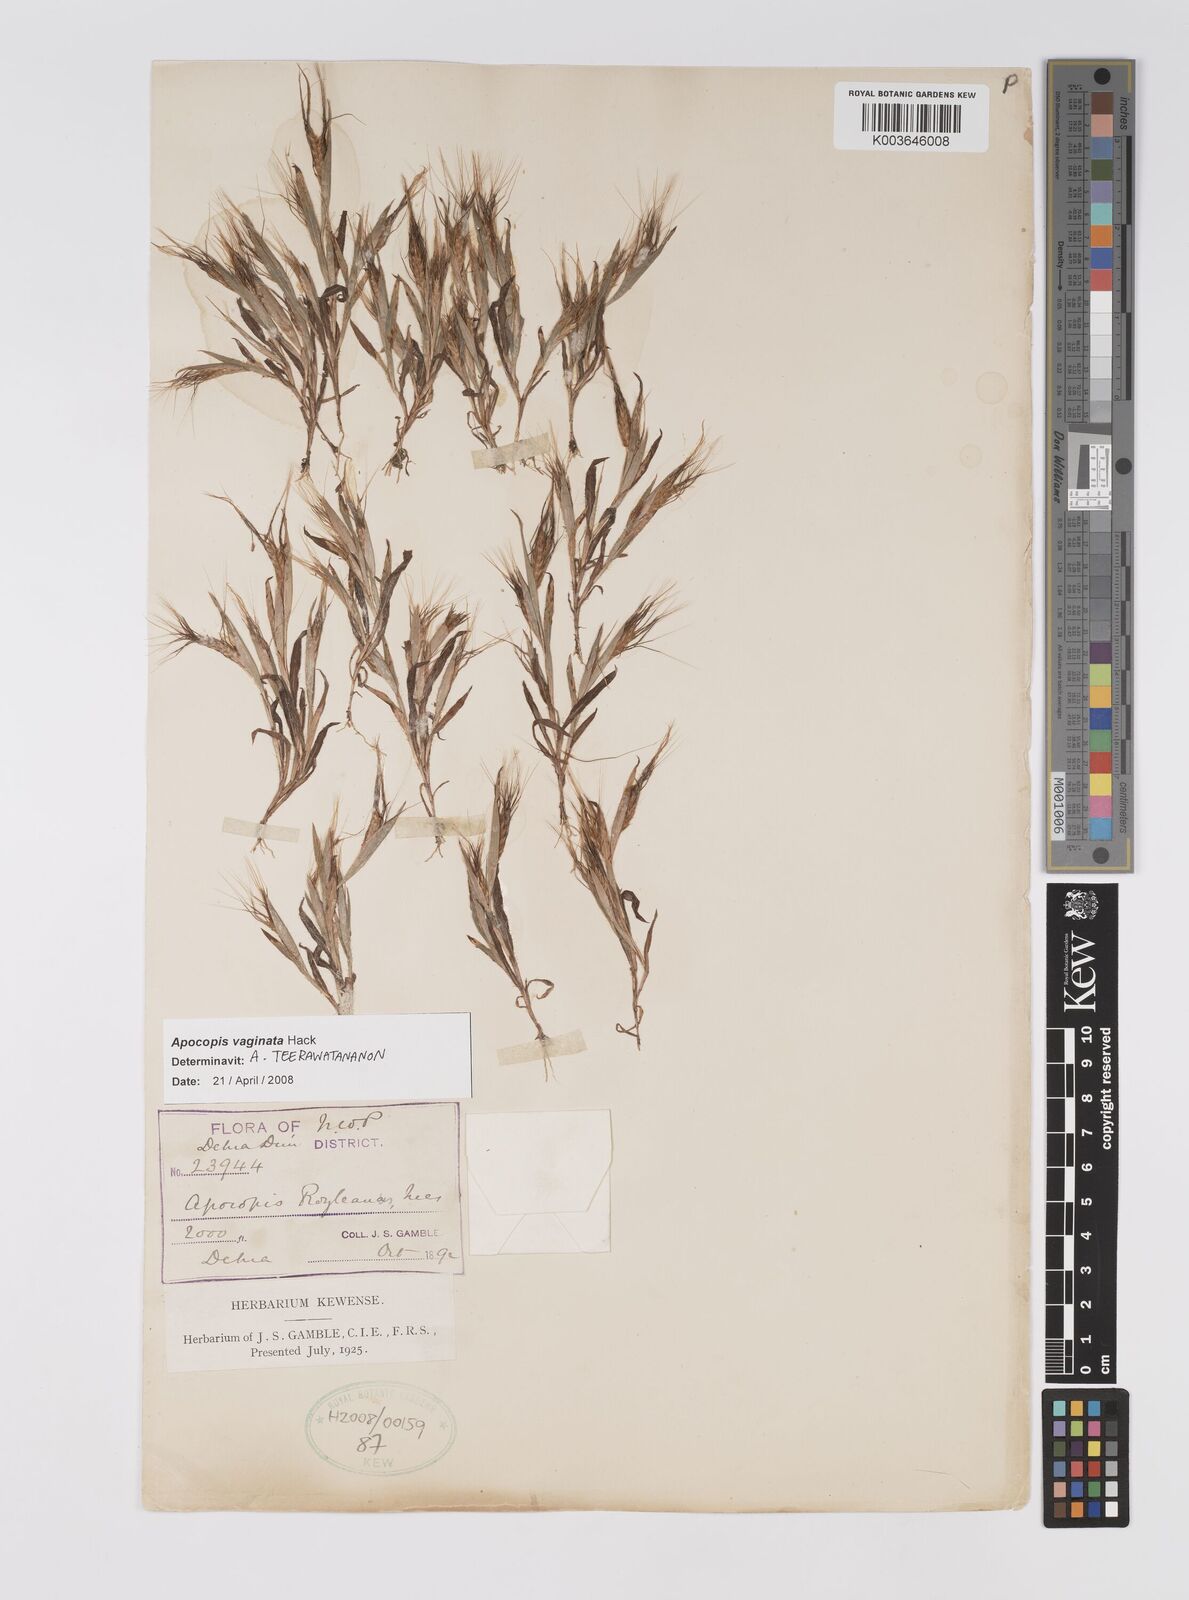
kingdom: Plantae
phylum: Tracheophyta
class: Liliopsida
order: Poales
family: Poaceae
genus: Apocopis
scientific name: Apocopis vaginatus
